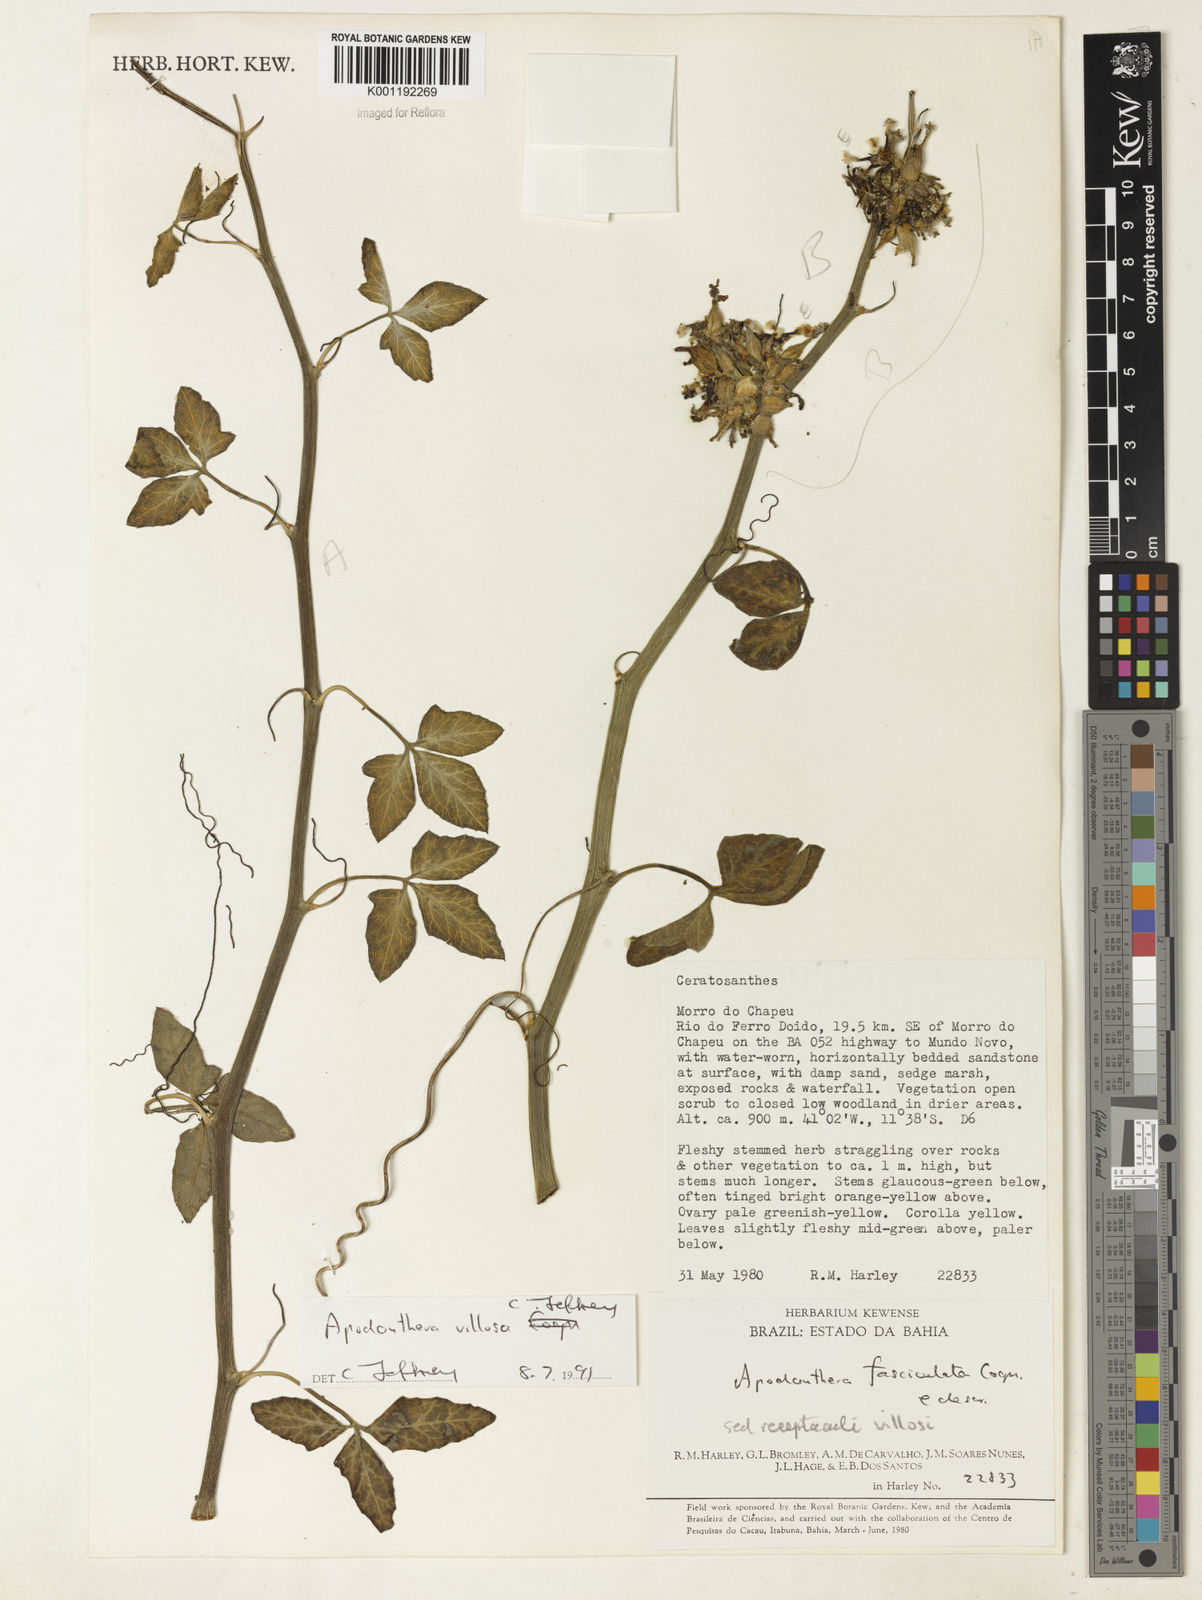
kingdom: Plantae
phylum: Tracheophyta
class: Magnoliopsida
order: Cucurbitales
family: Cucurbitaceae
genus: Apodanthera
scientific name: Apodanthera villosa
